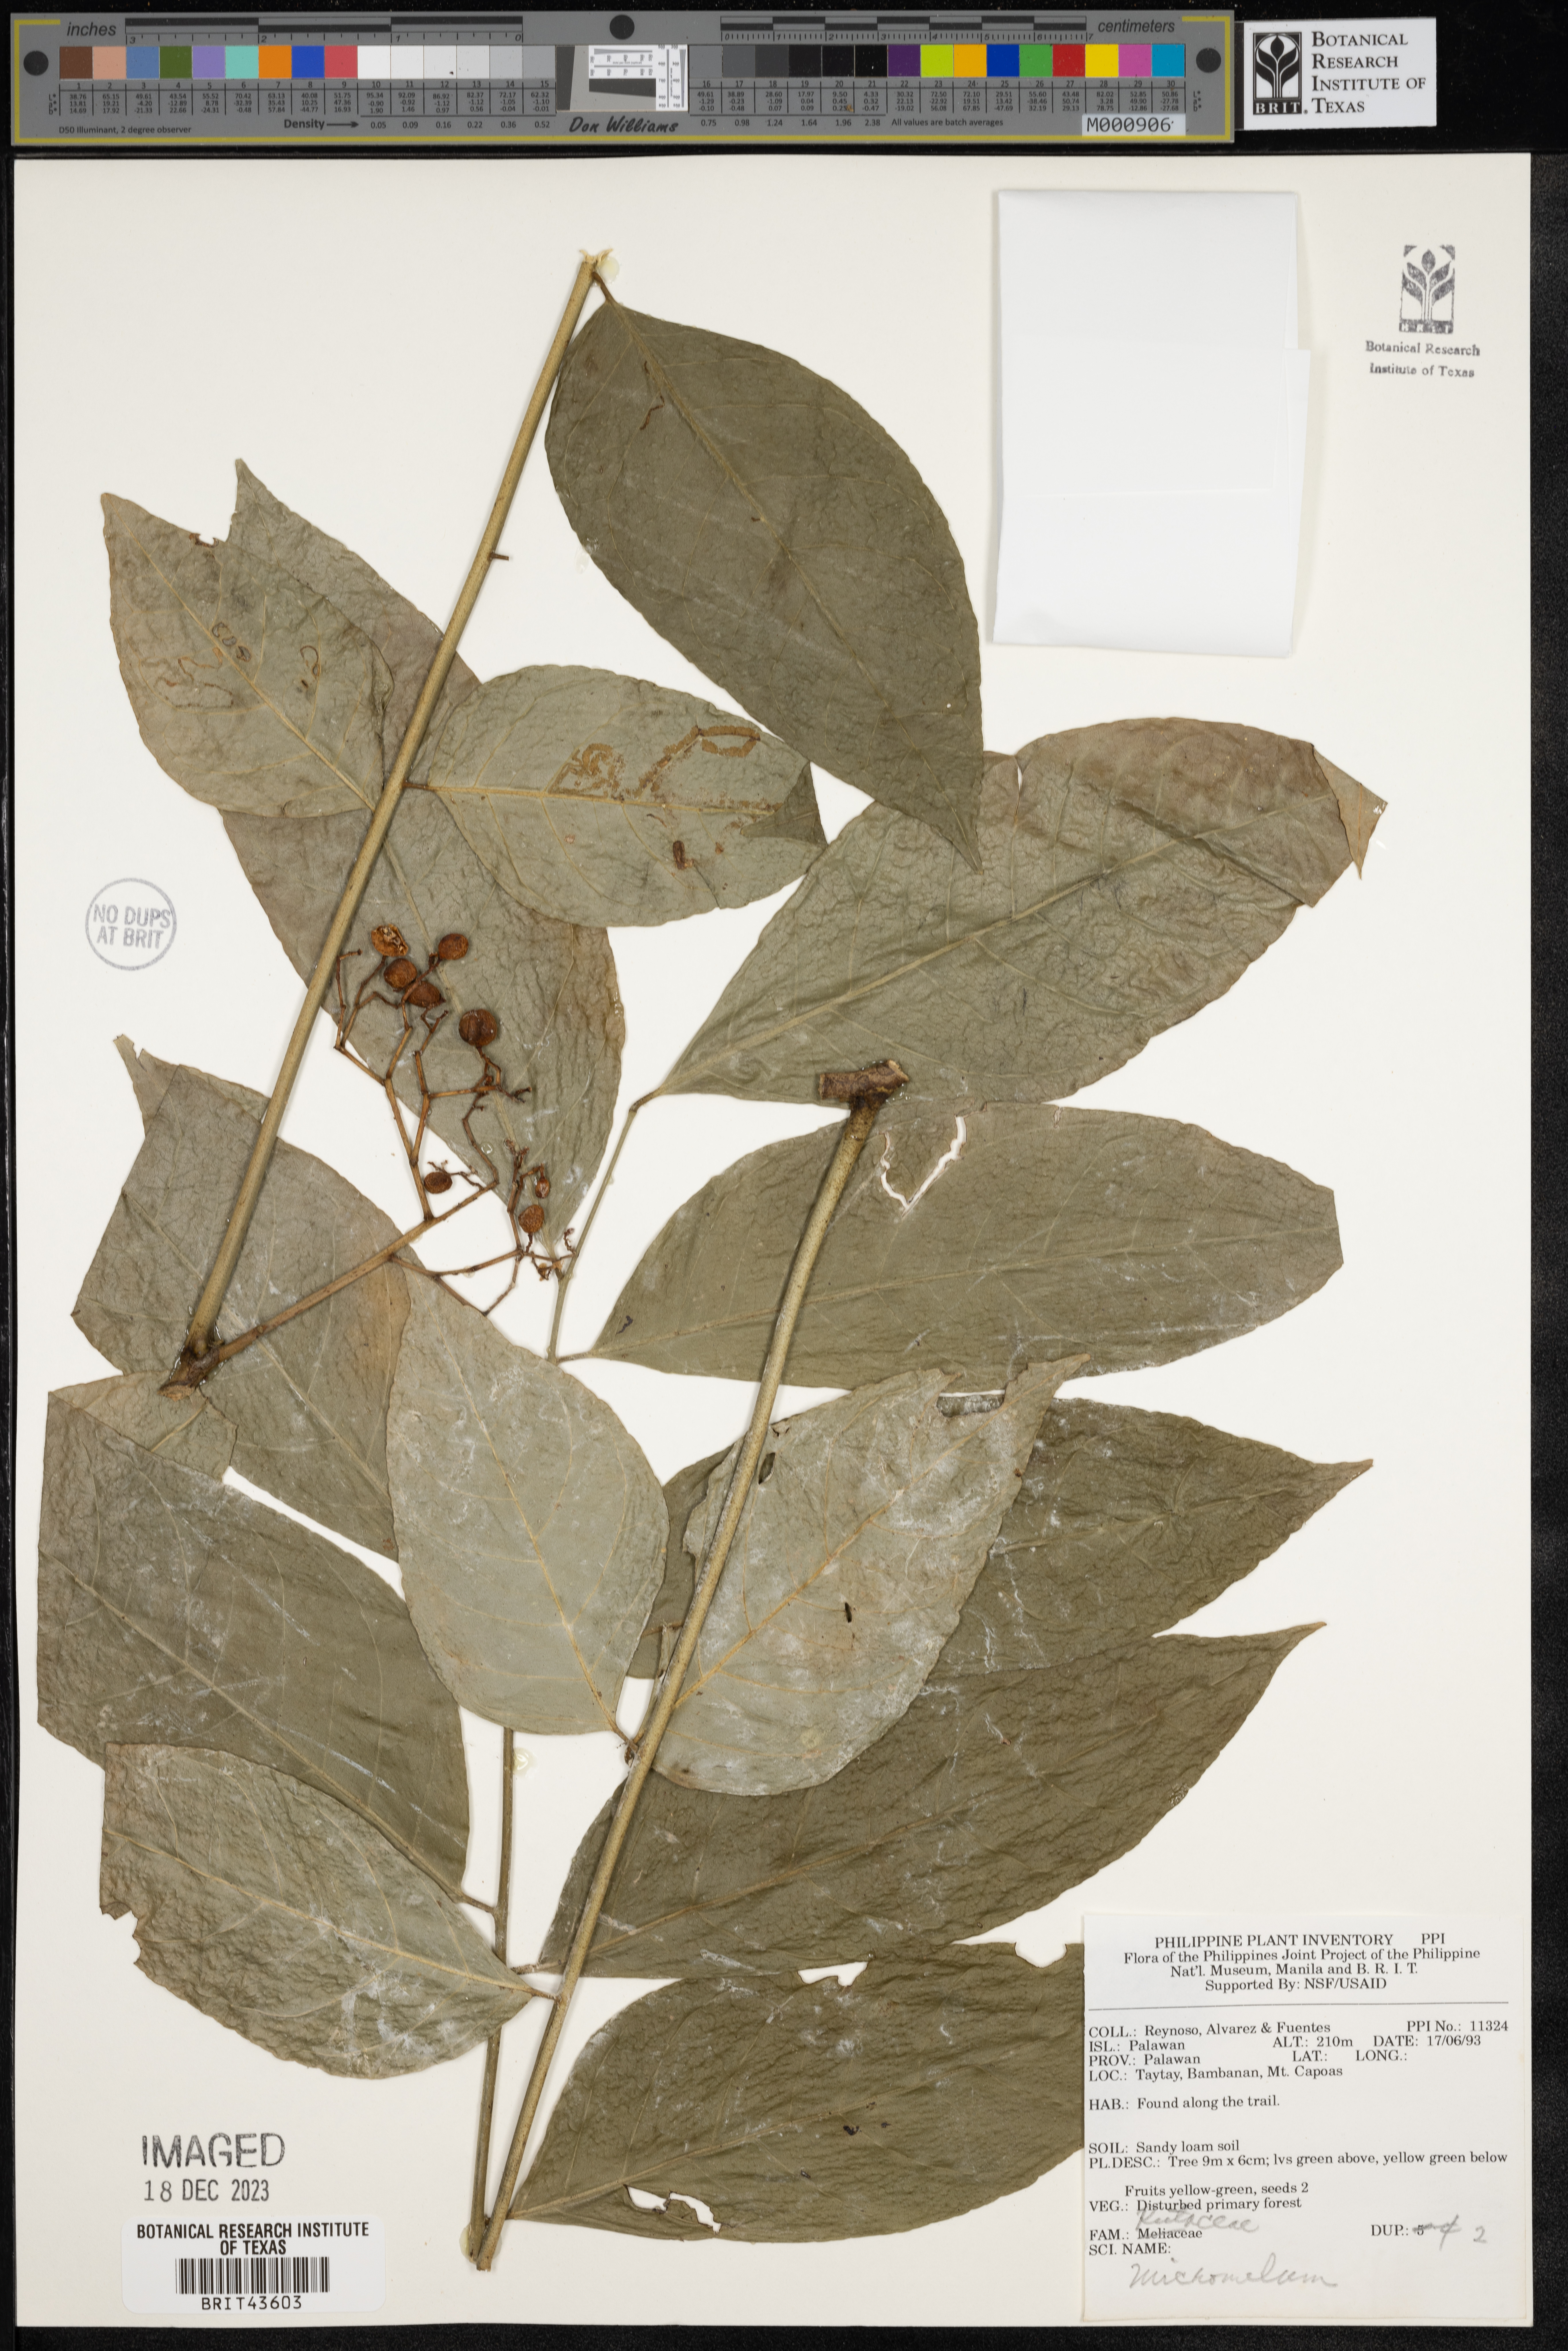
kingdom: Plantae
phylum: Tracheophyta
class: Magnoliopsida
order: Sapindales
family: Rutaceae
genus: Micromelum
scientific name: Micromelum
